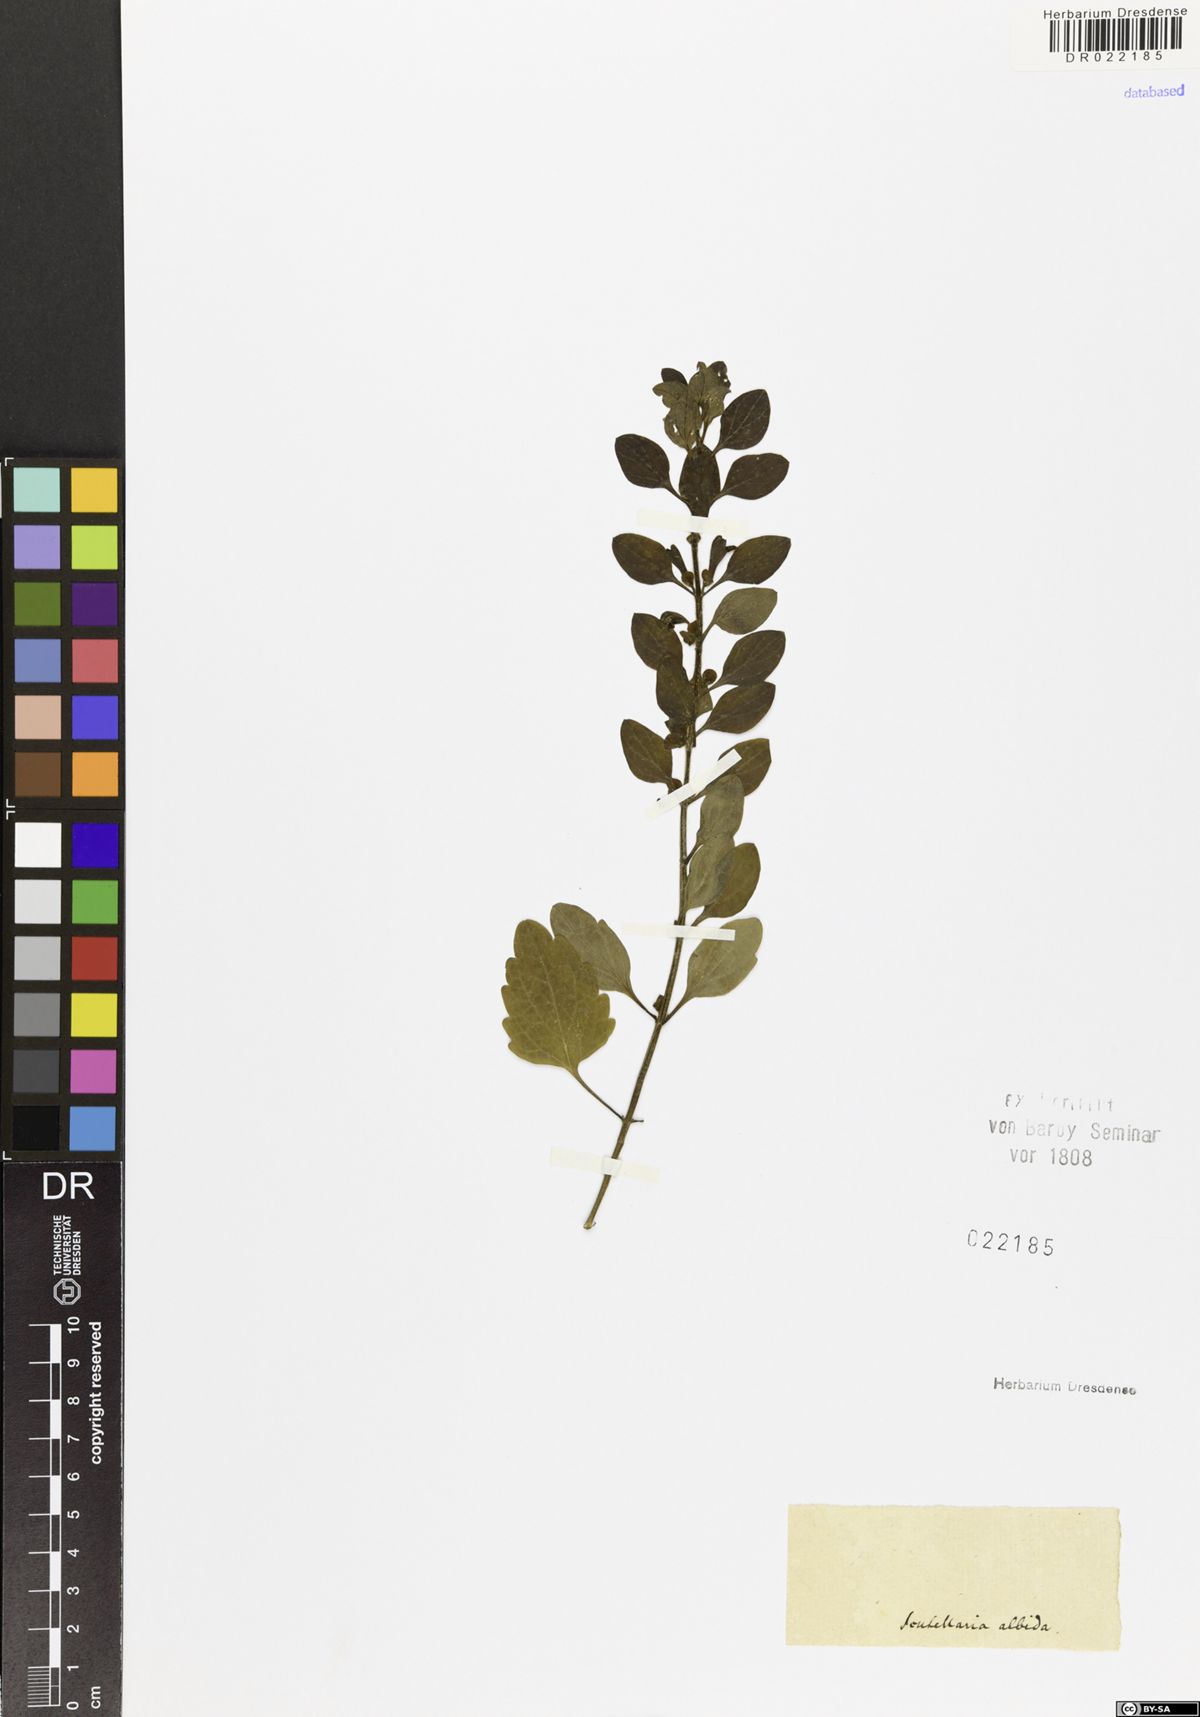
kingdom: Plantae
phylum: Tracheophyta
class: Magnoliopsida
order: Lamiales
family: Lamiaceae
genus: Scutellaria
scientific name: Scutellaria albida
